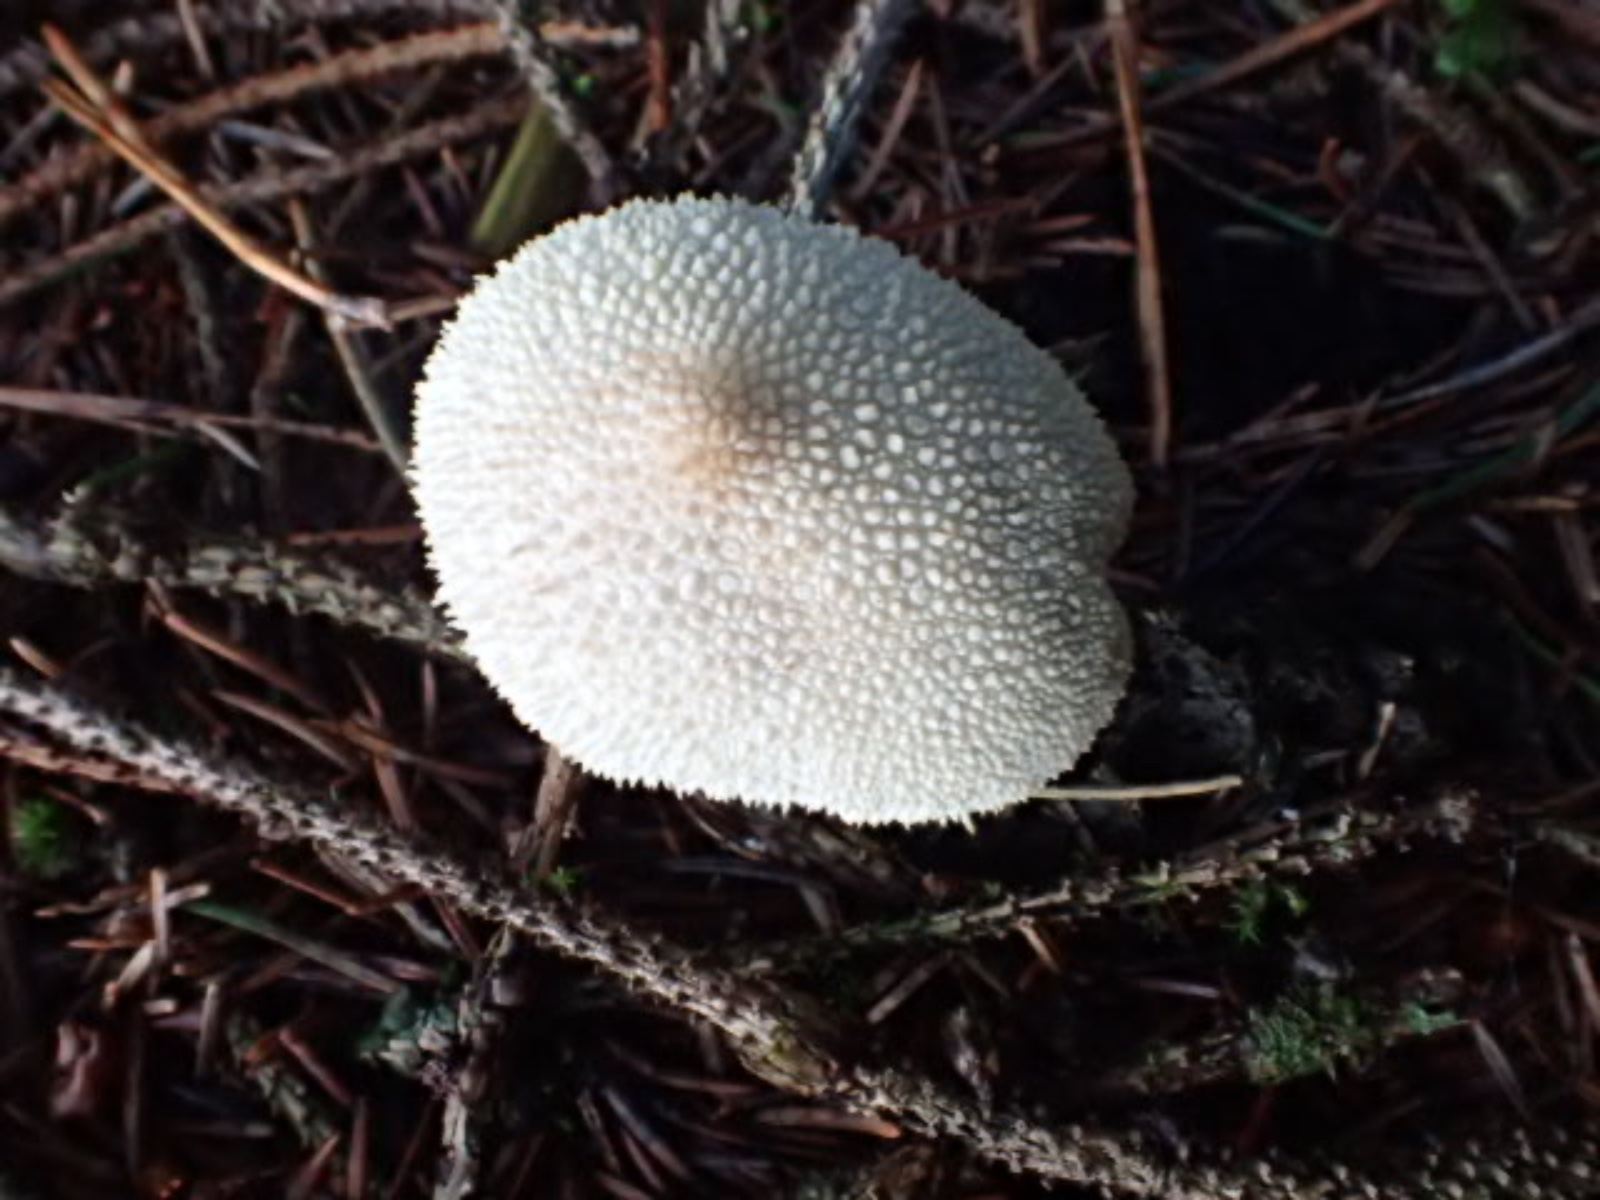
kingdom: Fungi
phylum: Basidiomycota
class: Agaricomycetes
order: Agaricales
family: Lycoperdaceae
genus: Lycoperdon
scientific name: Lycoperdon perlatum
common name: krystal-støvbold
